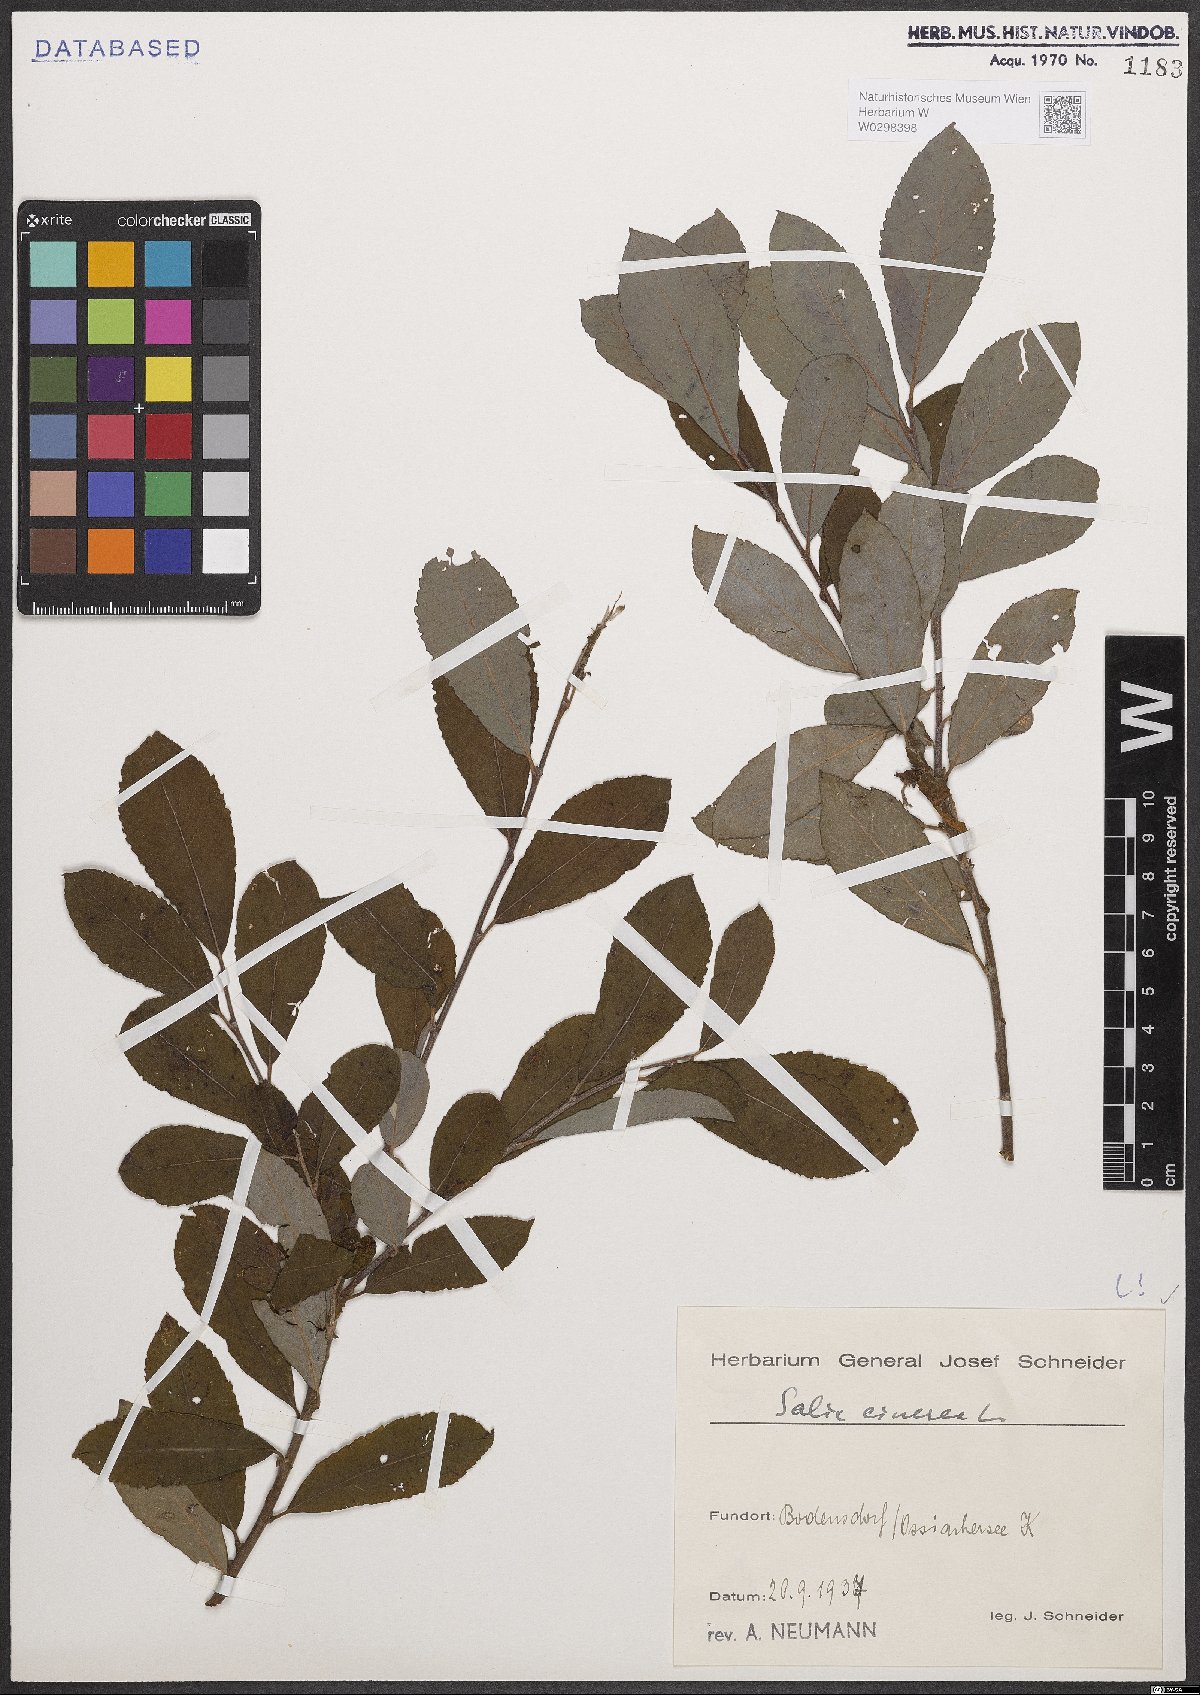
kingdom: Plantae
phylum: Tracheophyta
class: Magnoliopsida
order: Malpighiales
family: Salicaceae
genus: Salix
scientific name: Salix cinerea
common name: Common sallow
